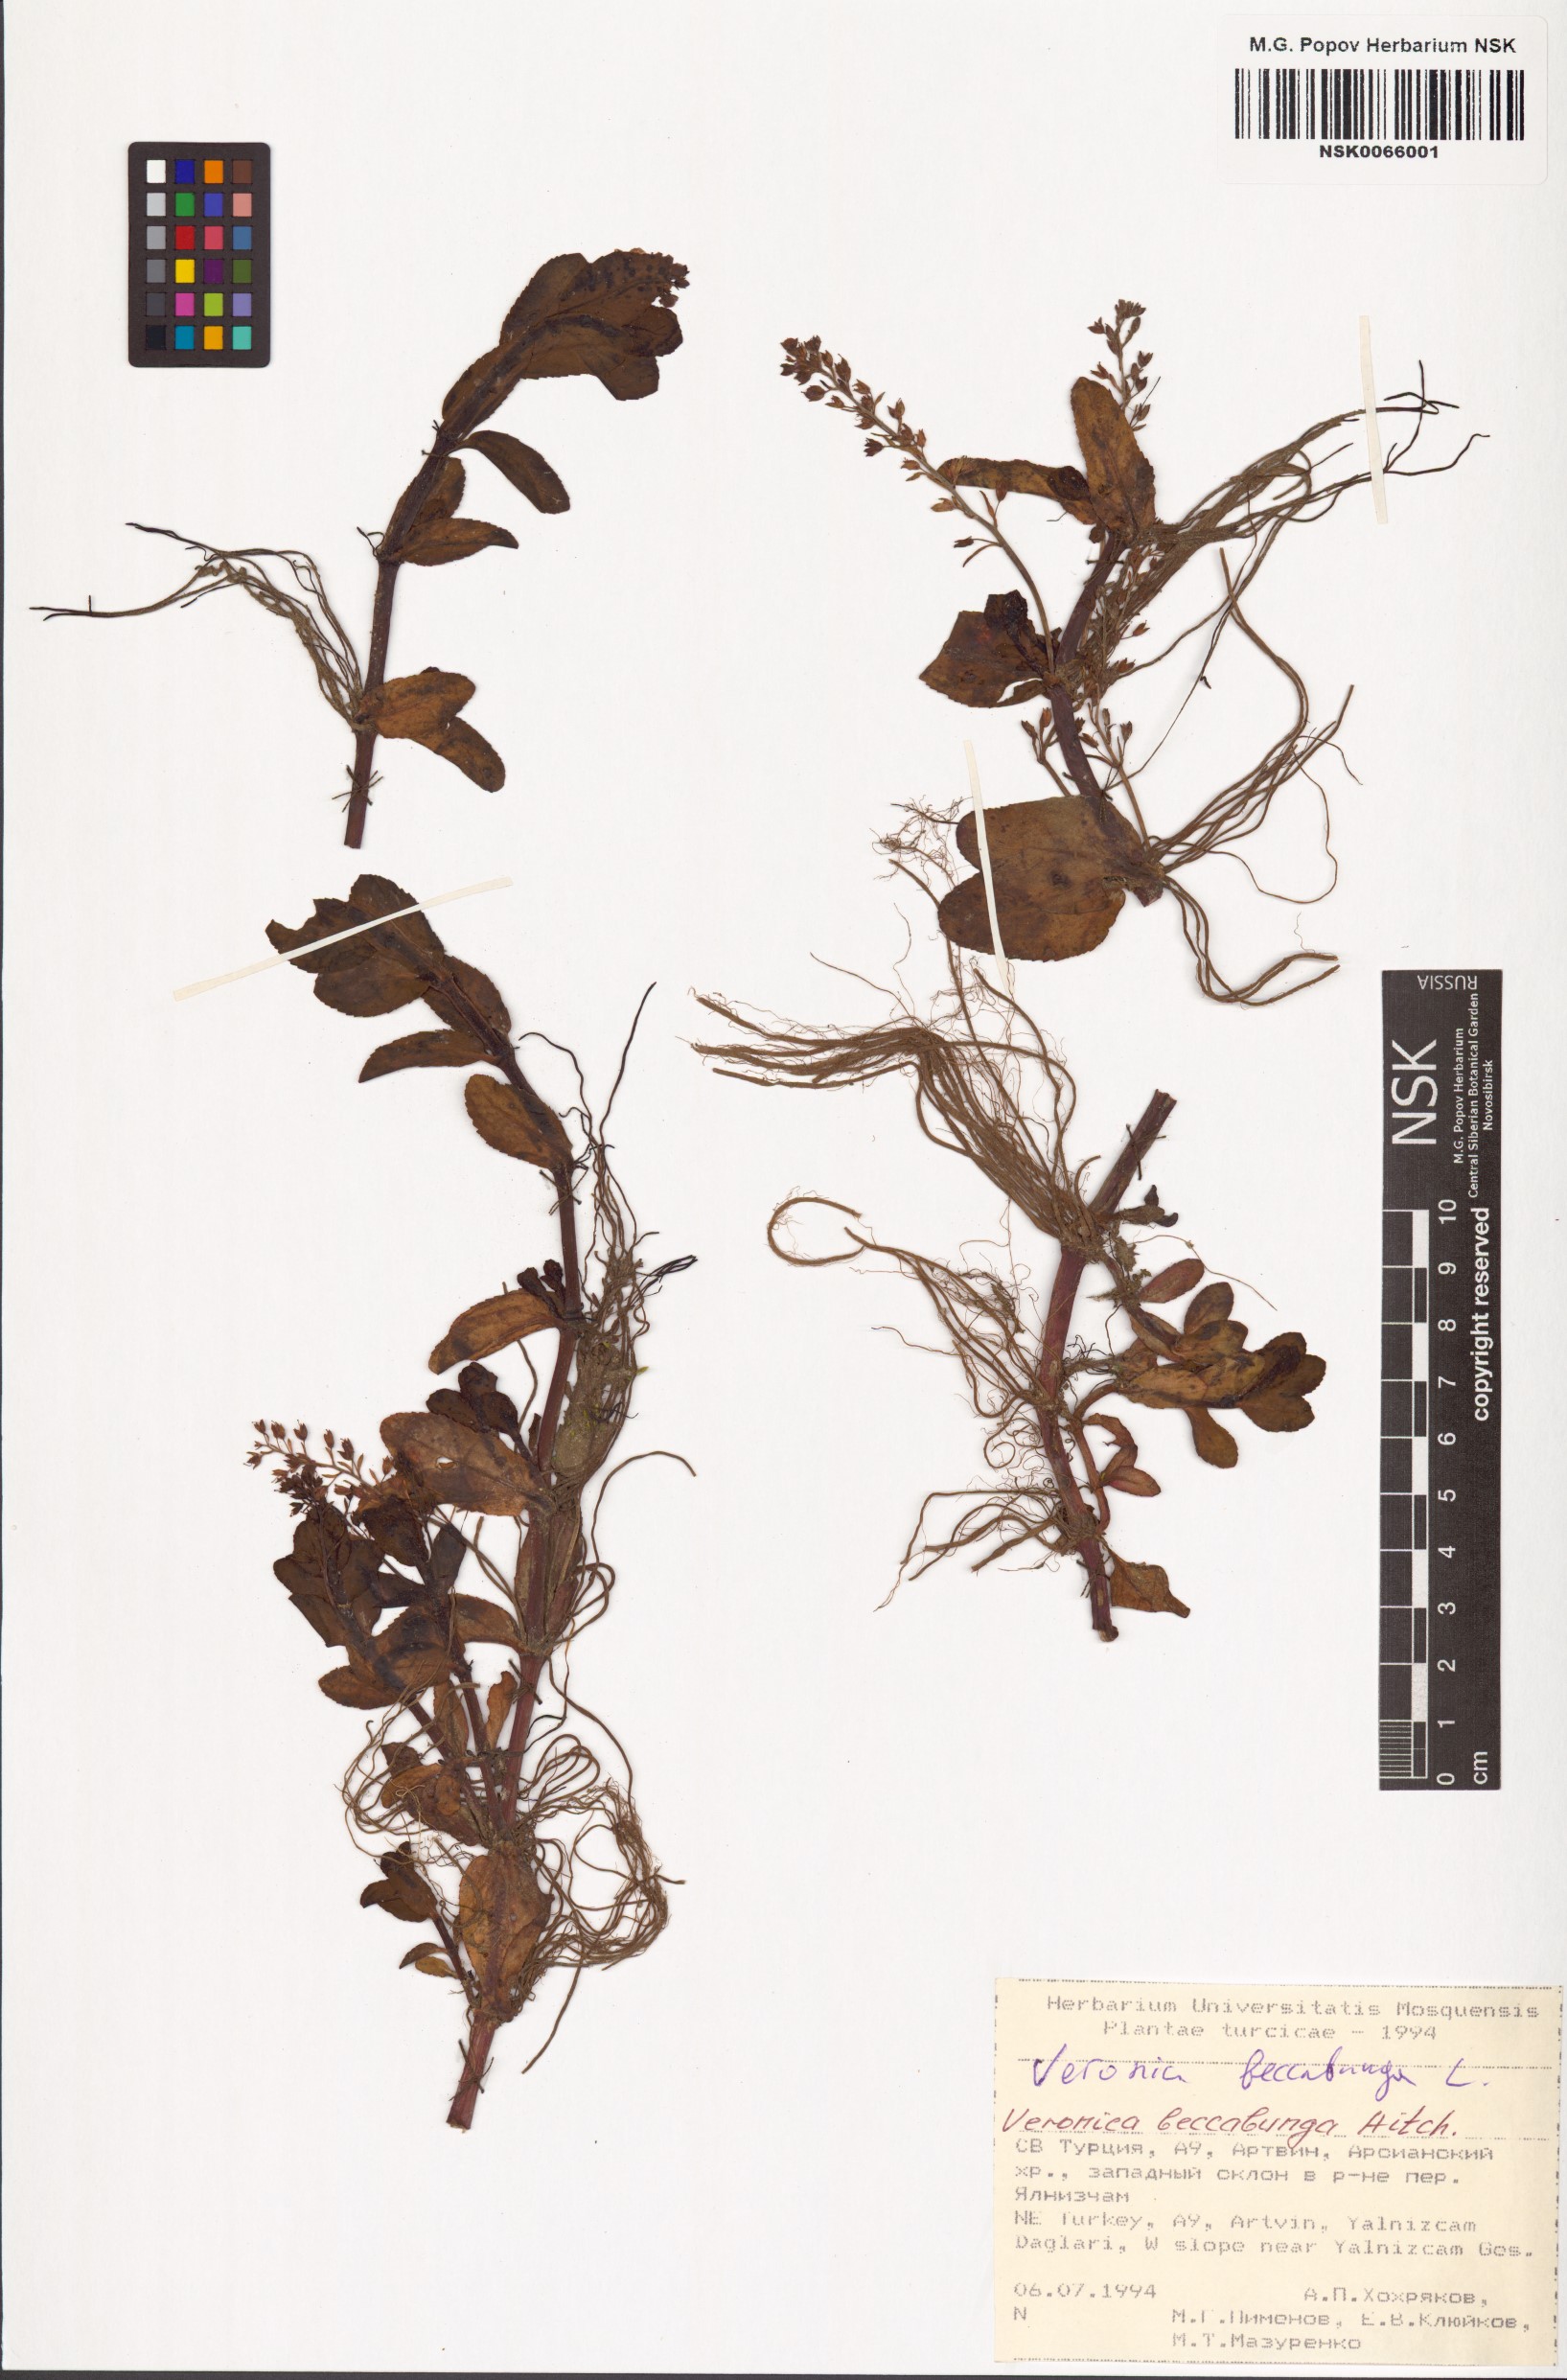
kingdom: Plantae
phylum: Tracheophyta
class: Magnoliopsida
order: Lamiales
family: Plantaginaceae
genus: Veronica
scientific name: Veronica beccabunga
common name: Brooklime
